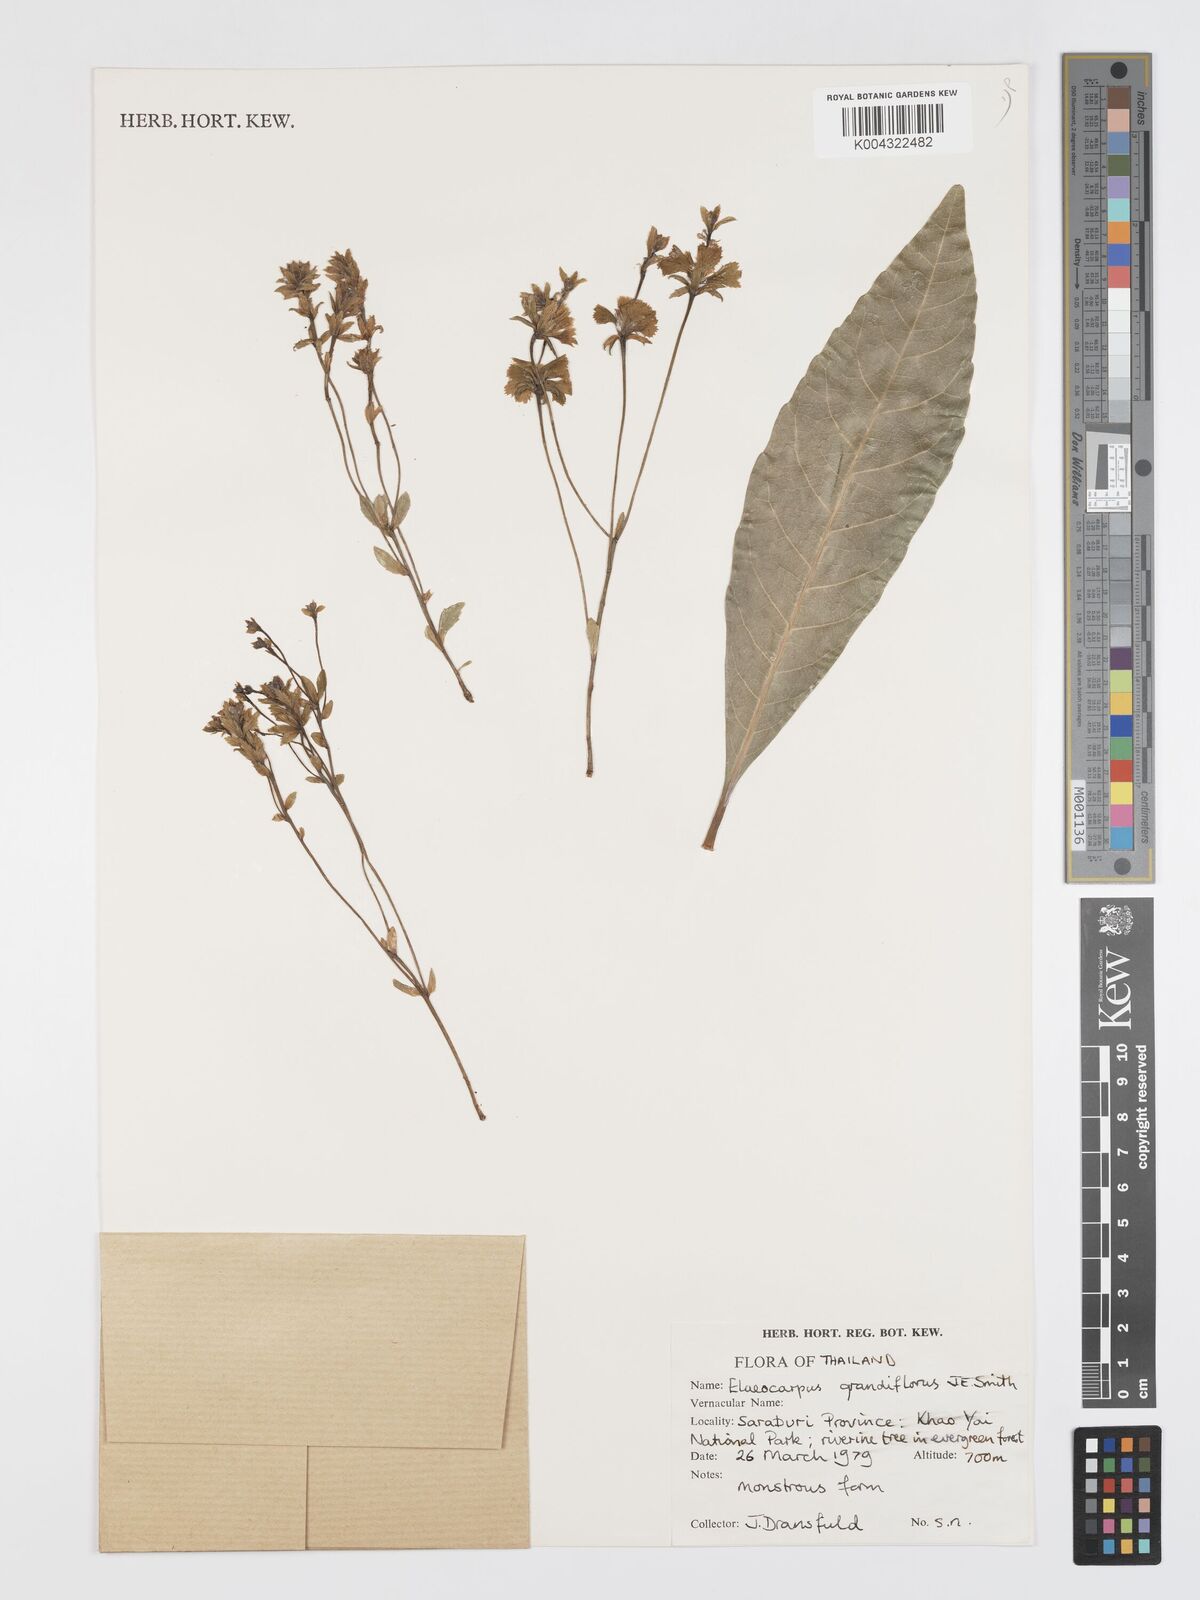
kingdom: Plantae
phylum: Tracheophyta
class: Magnoliopsida
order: Oxalidales
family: Elaeocarpaceae
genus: Elaeocarpus
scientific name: Elaeocarpus grandiflorus
